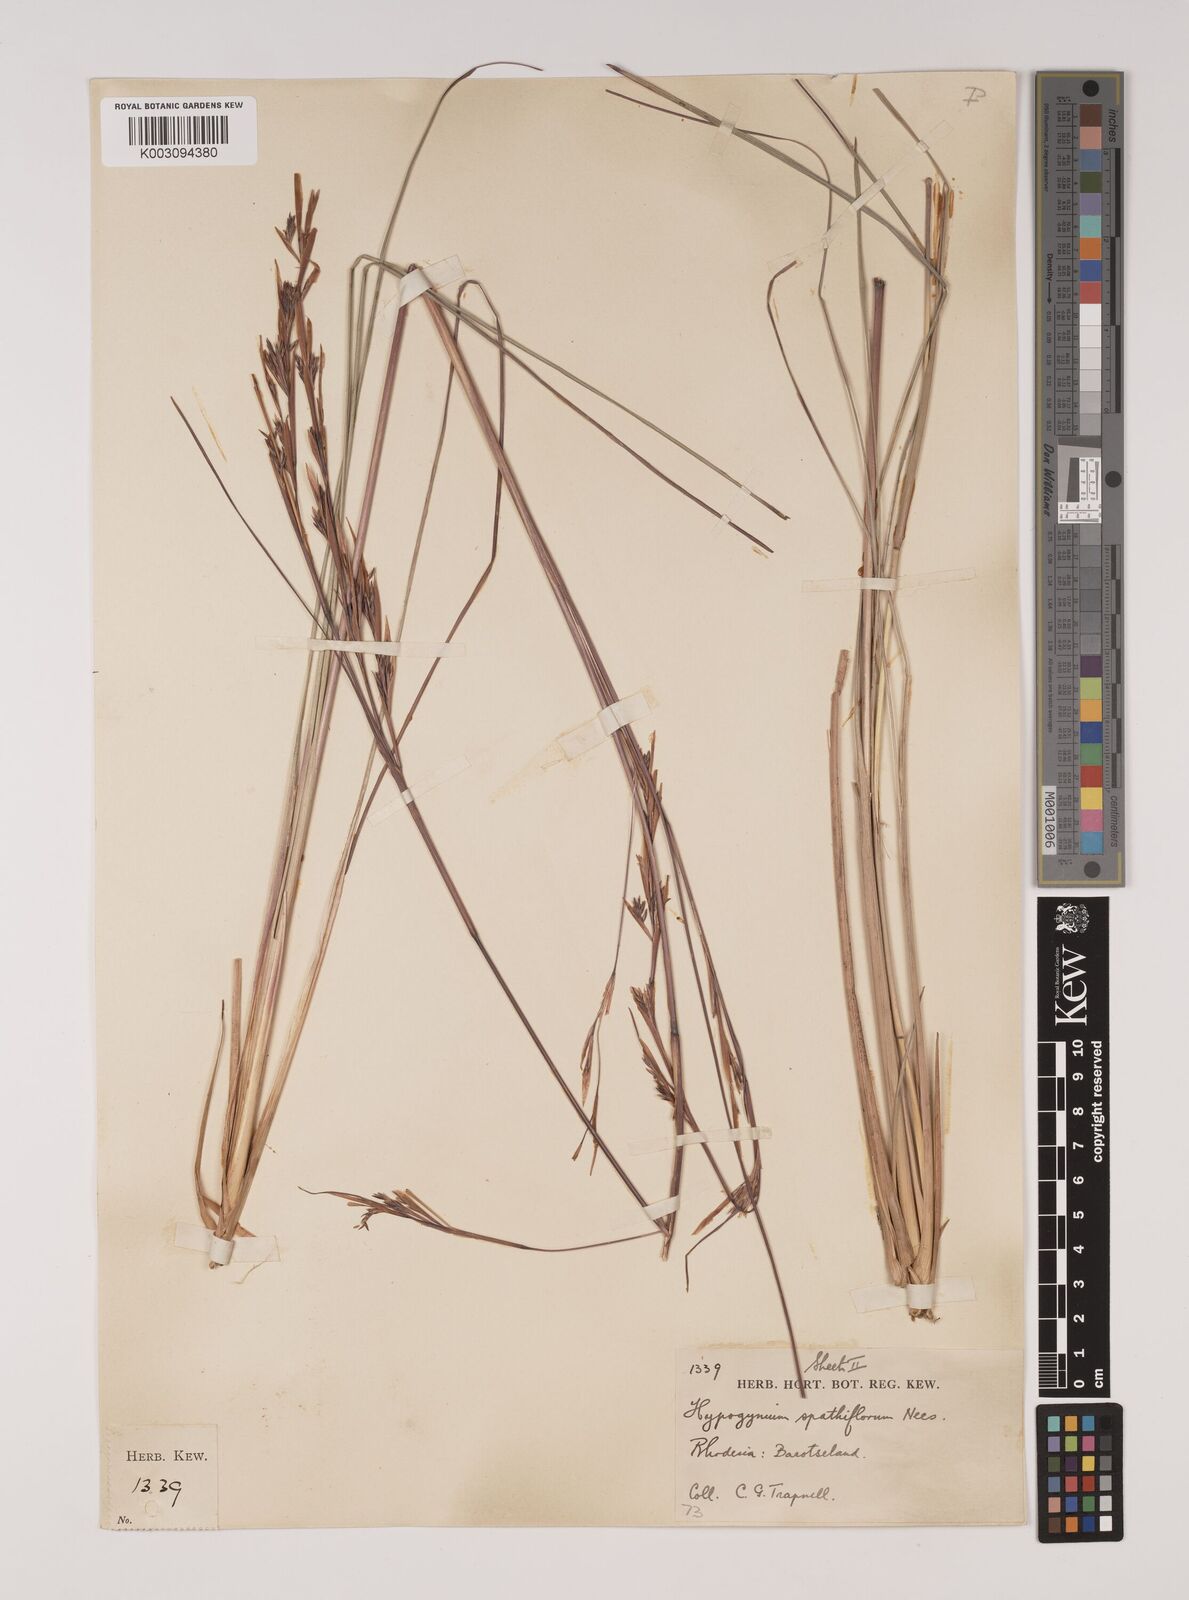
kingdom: Plantae
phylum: Tracheophyta
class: Liliopsida
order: Poales
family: Poaceae
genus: Andropogon
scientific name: Andropogon festuciformis
